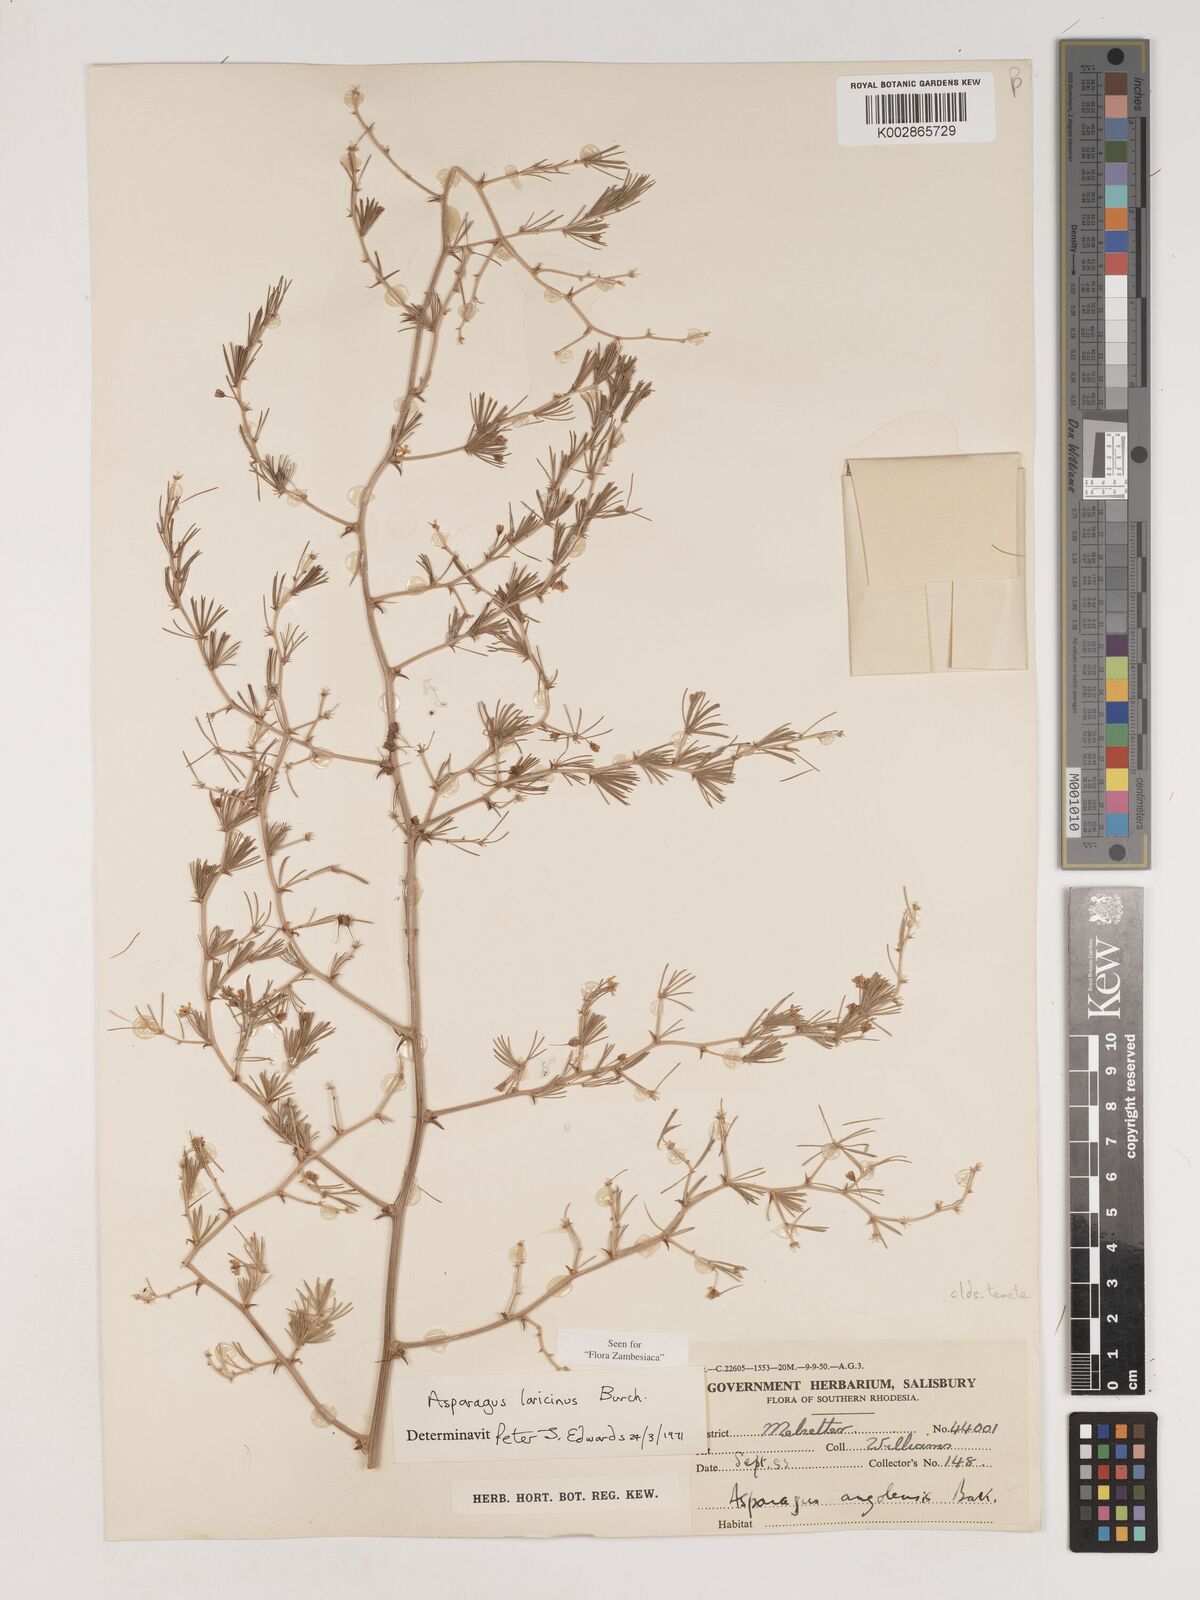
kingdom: Plantae
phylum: Tracheophyta
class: Liliopsida
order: Asparagales
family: Asparagaceae
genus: Asparagus
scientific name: Asparagus laricinus
